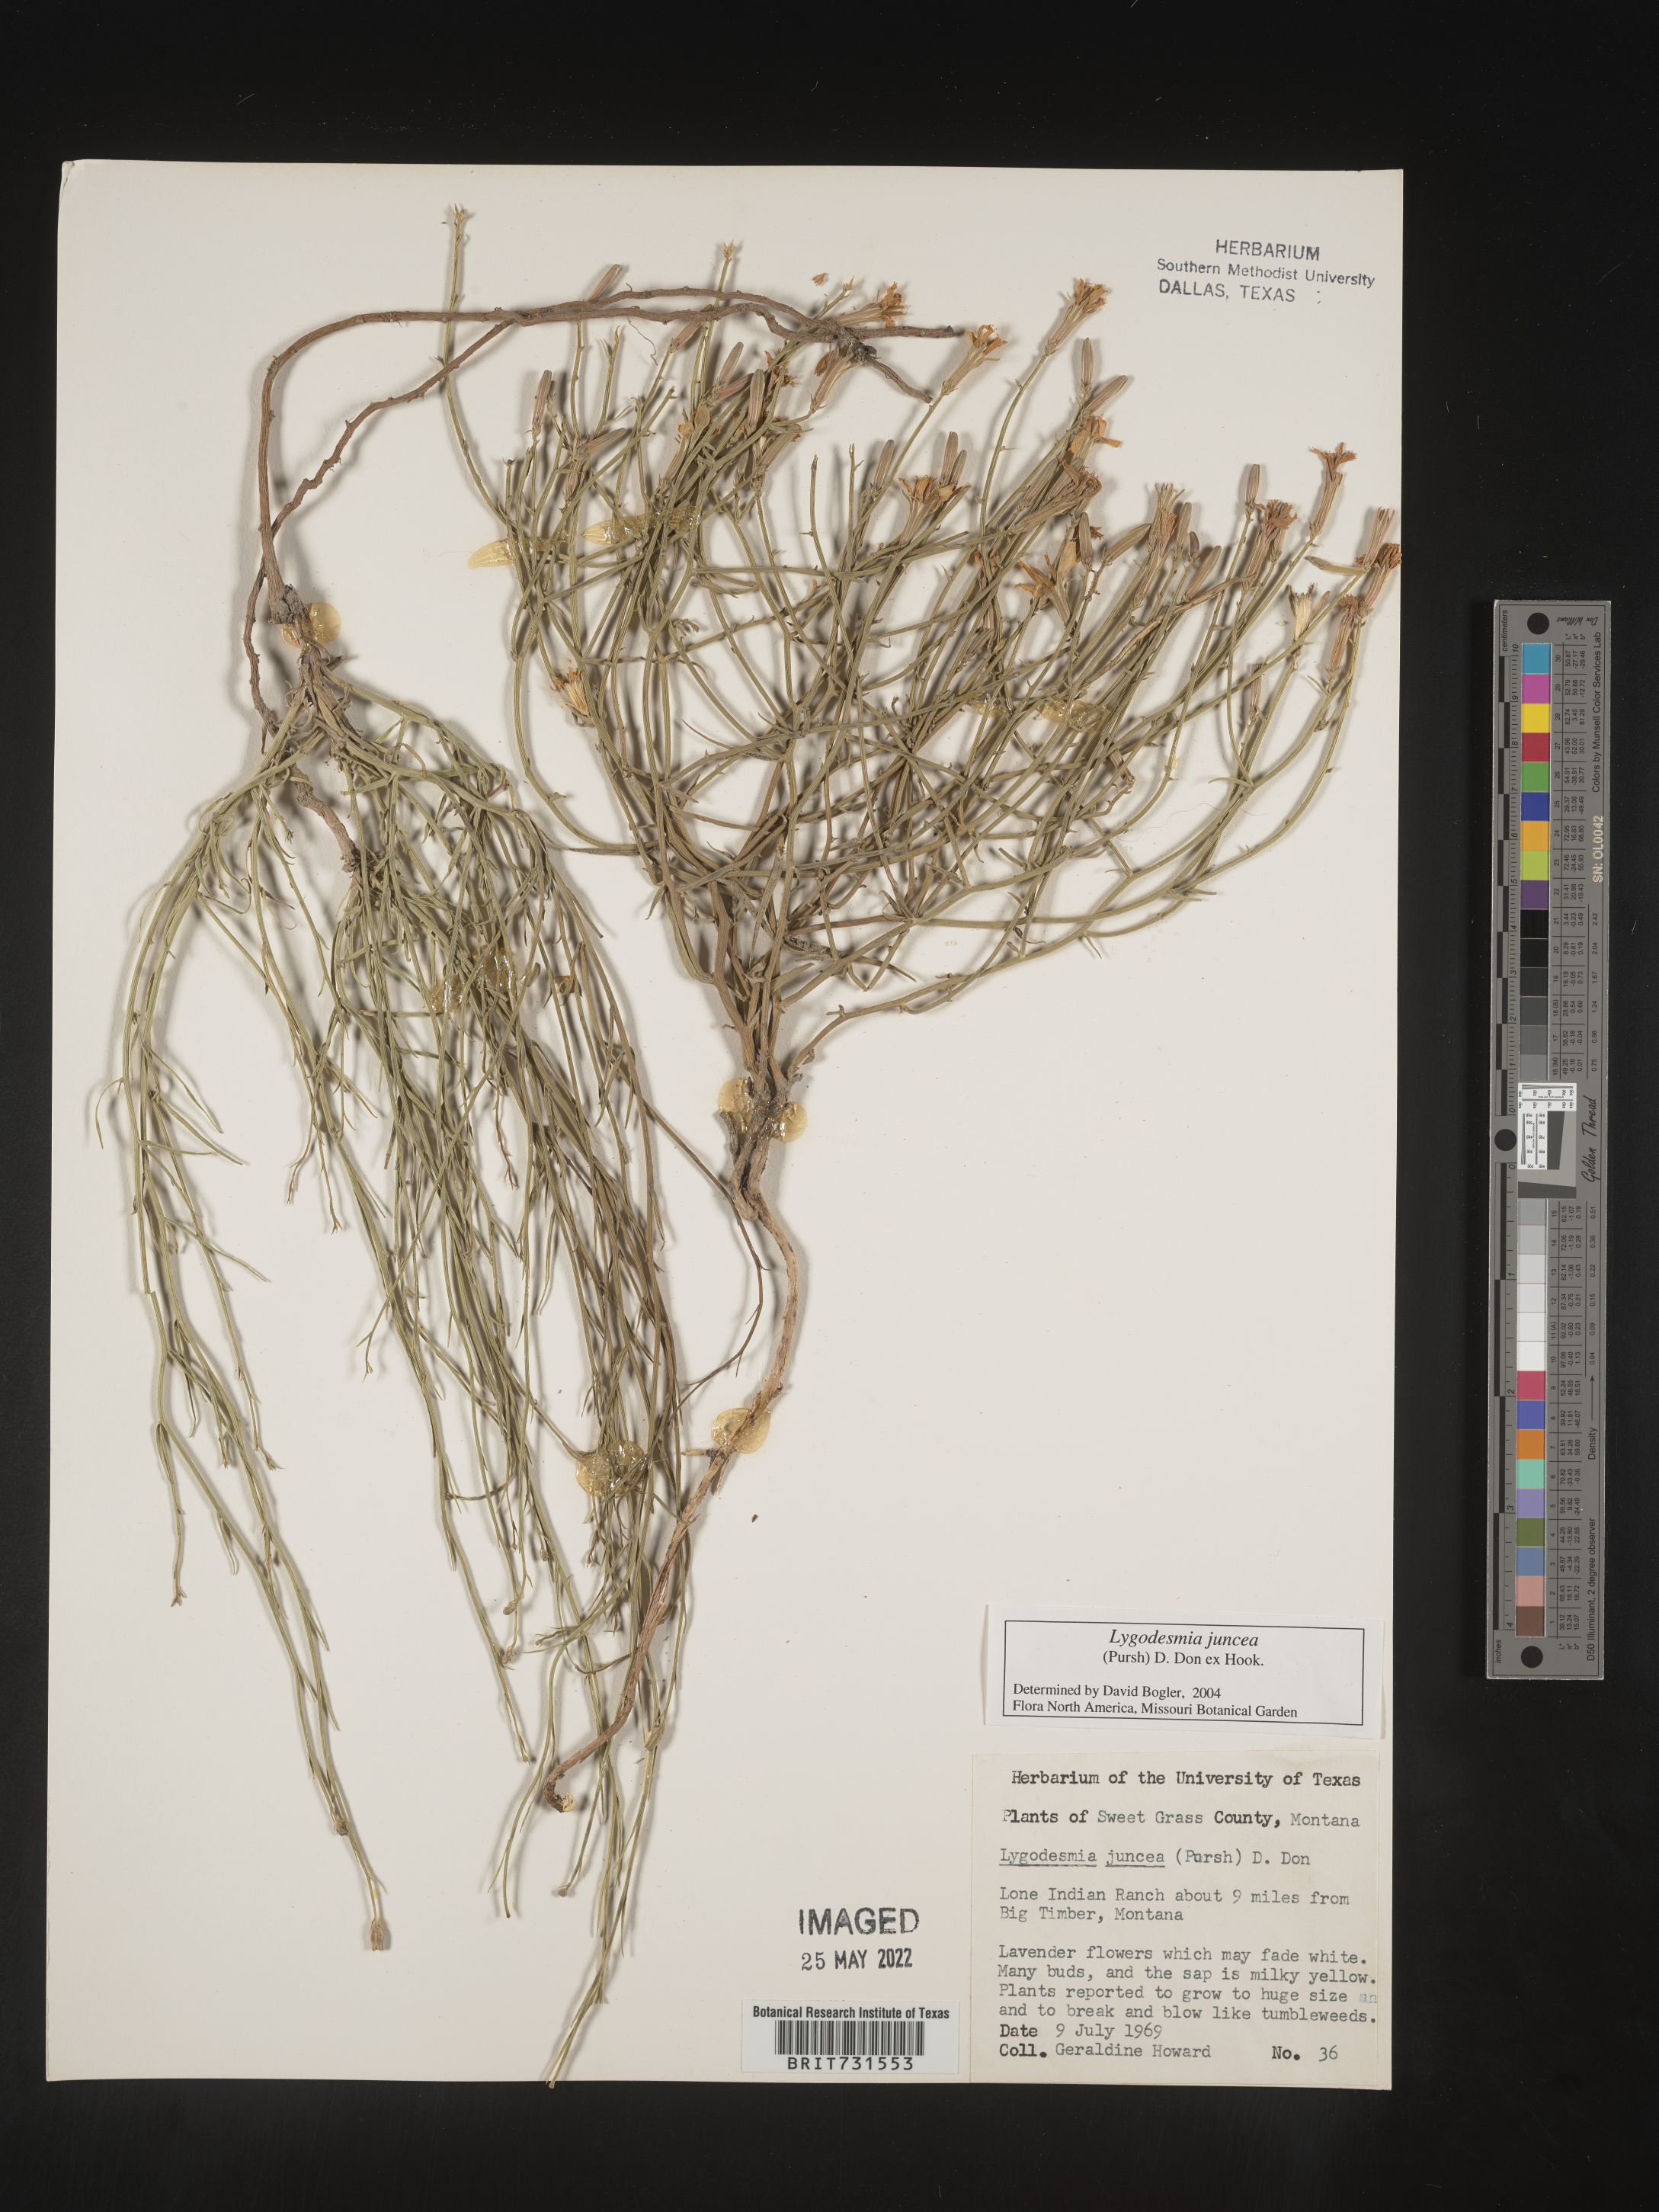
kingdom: Plantae
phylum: Tracheophyta
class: Magnoliopsida
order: Asterales
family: Asteraceae
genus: Lygodesmia
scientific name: Lygodesmia juncea
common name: Common skeletonweed
